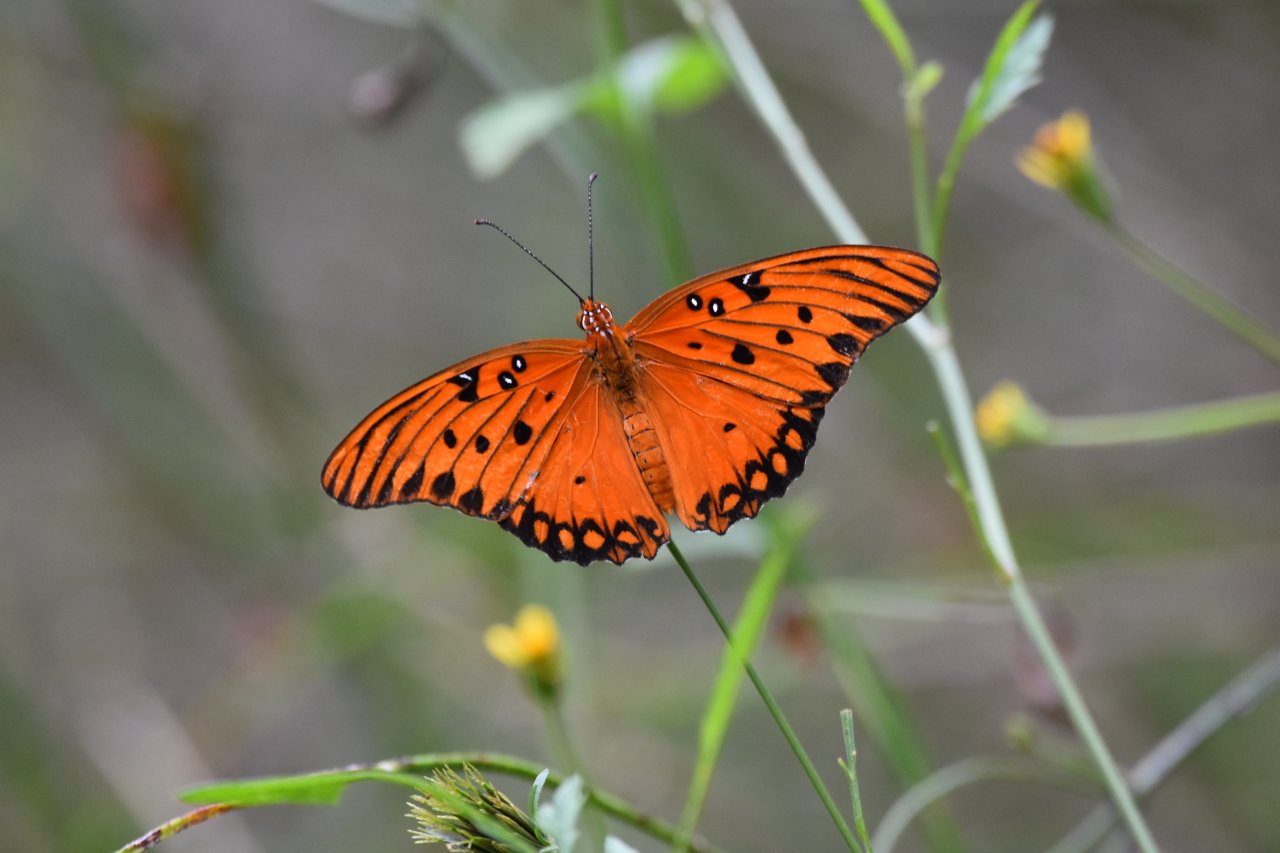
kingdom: Animalia
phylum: Arthropoda
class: Insecta
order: Lepidoptera
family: Nymphalidae
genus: Dione
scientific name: Dione vanillae
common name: Gulf Fritillary
